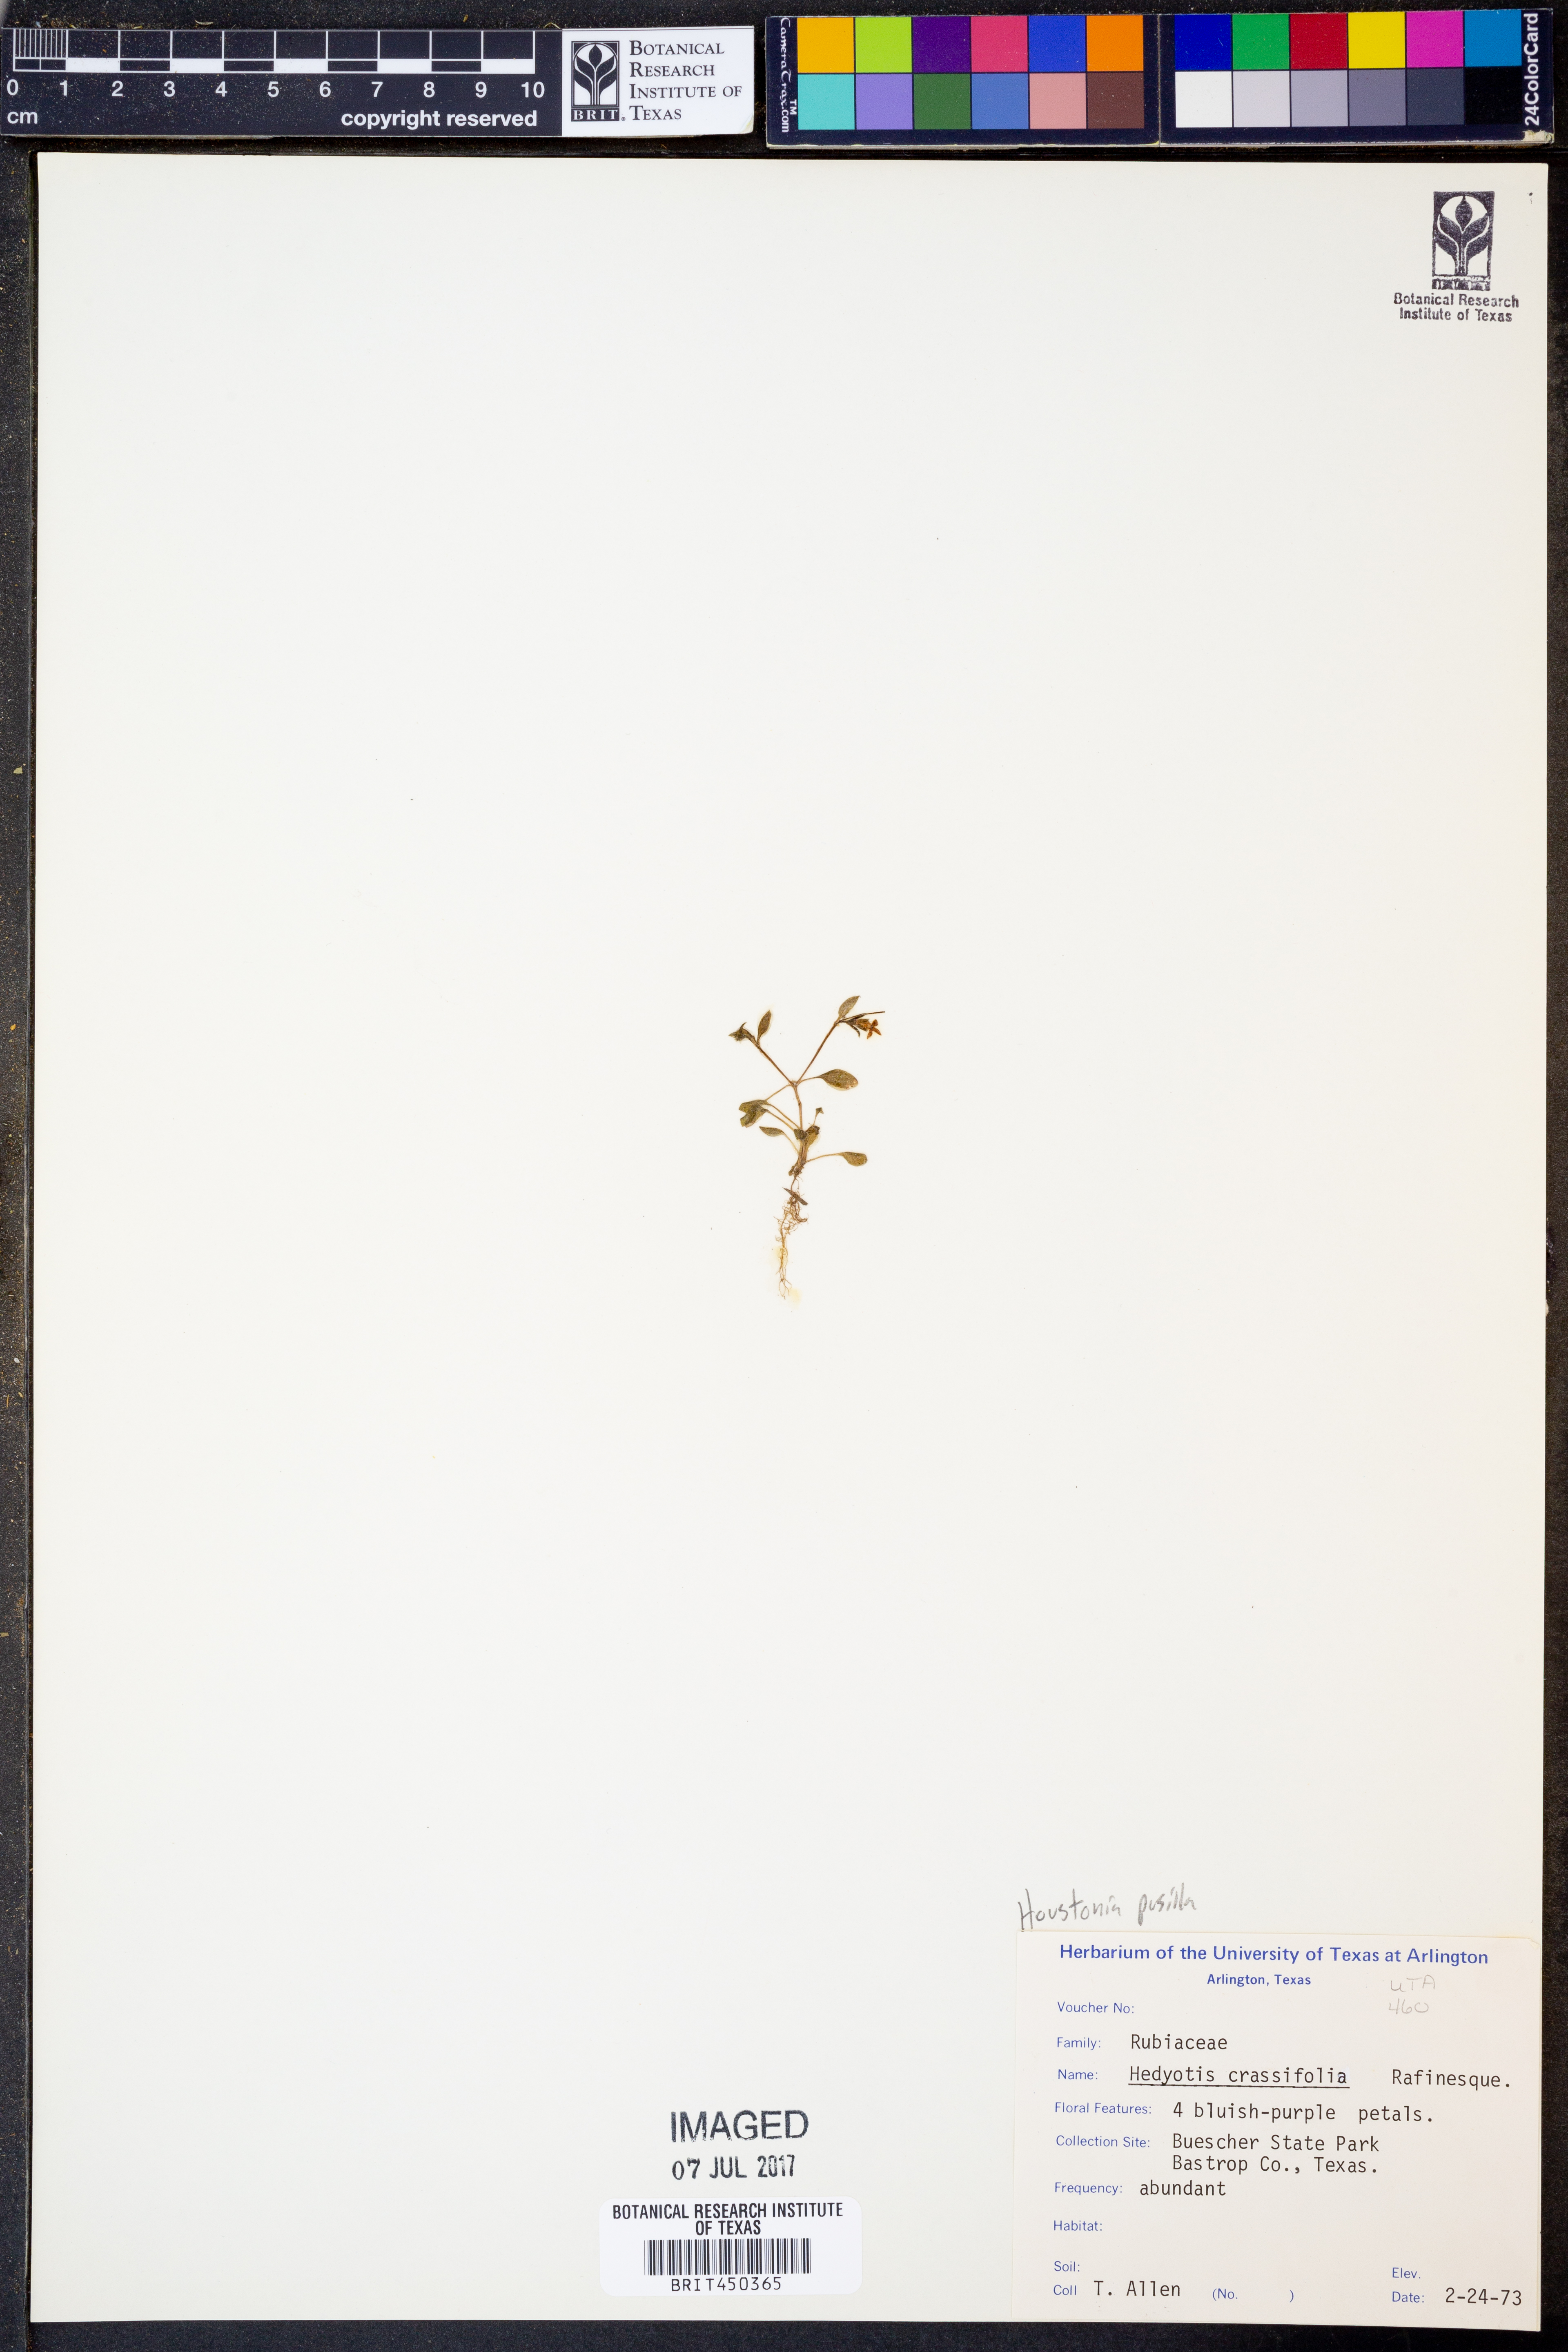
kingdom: Plantae
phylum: Tracheophyta
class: Magnoliopsida
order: Gentianales
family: Rubiaceae
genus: Houstonia
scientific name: Houstonia pusilla
